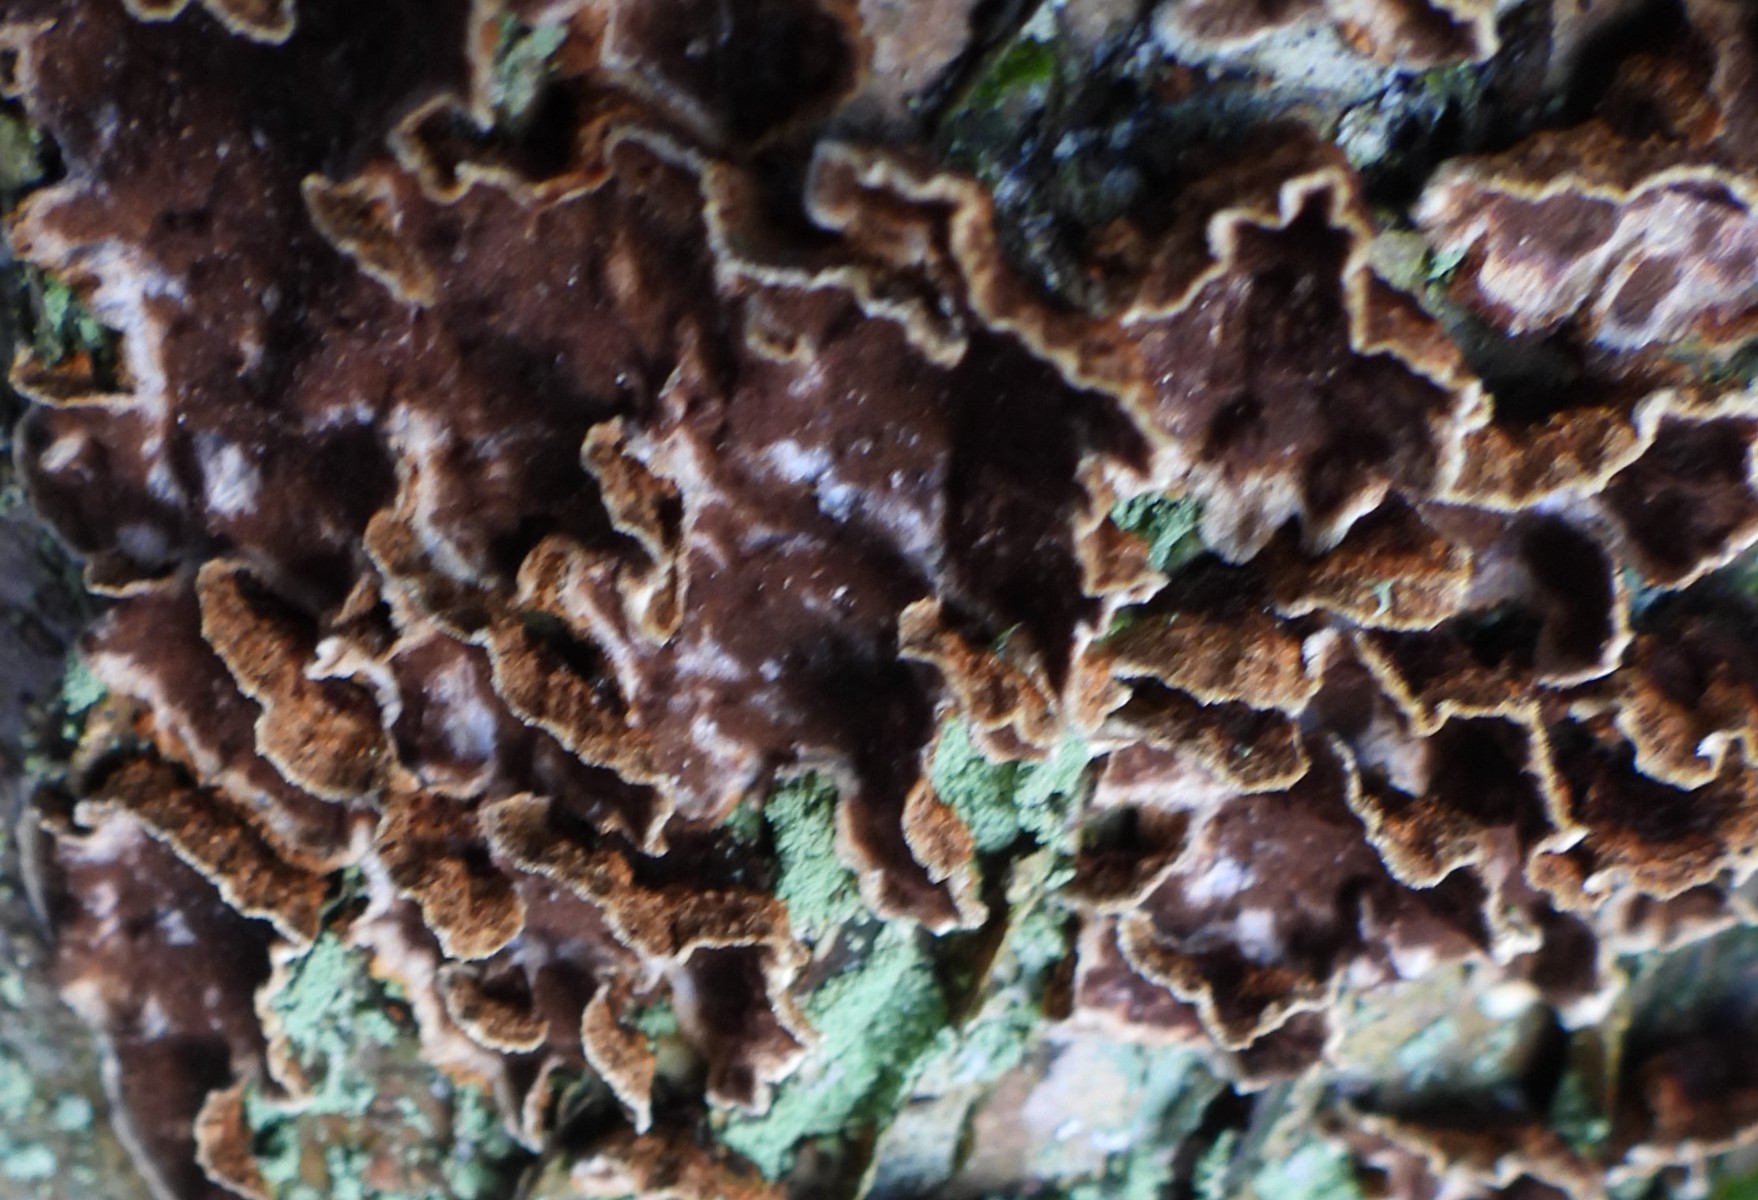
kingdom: Fungi
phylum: Basidiomycota
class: Agaricomycetes
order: Hymenochaetales
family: Hymenochaetaceae
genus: Hydnoporia
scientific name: Hydnoporia tabacina
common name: tobaksbrun ruslædersvamp
